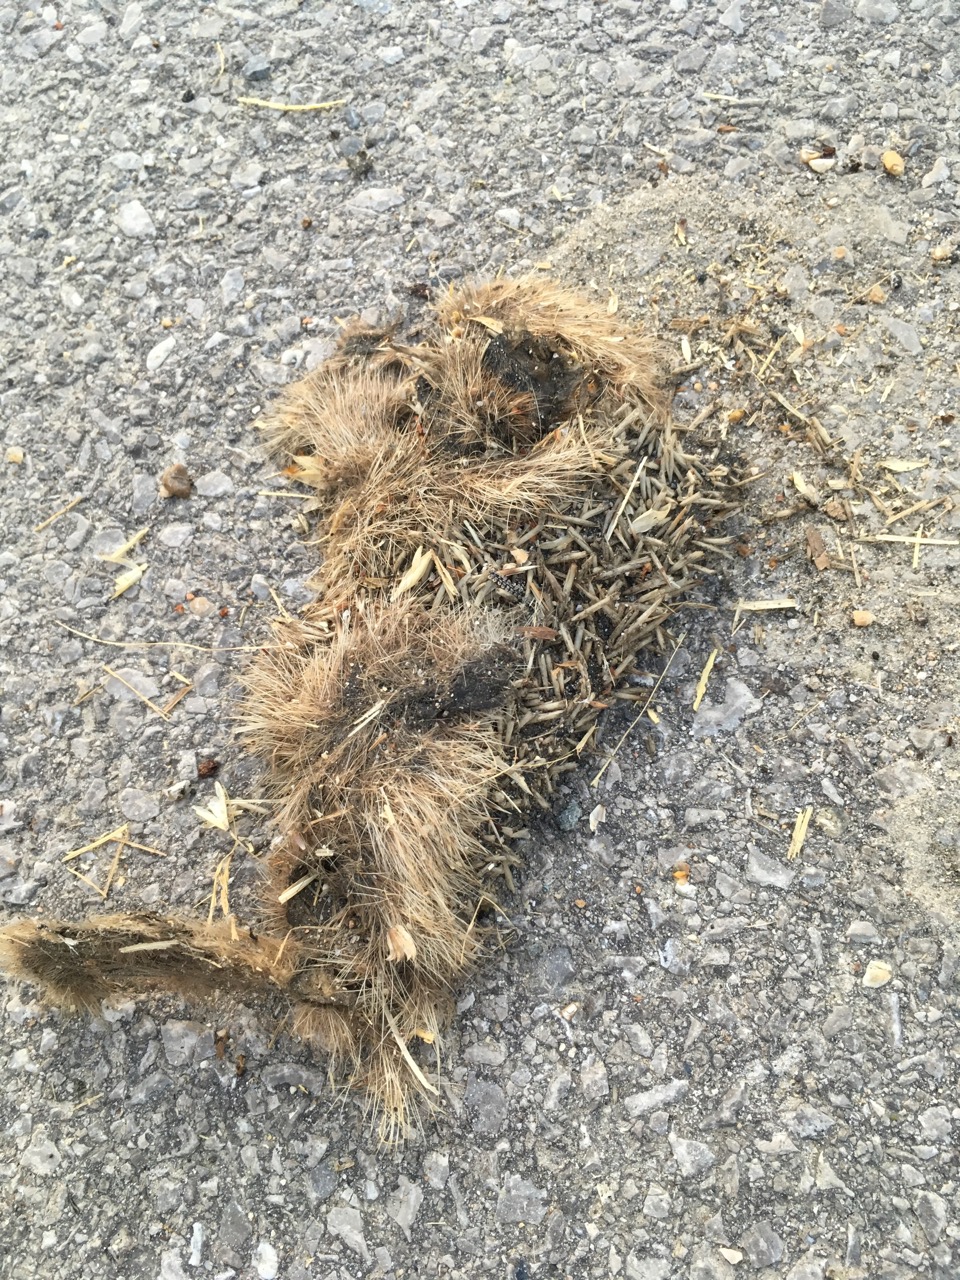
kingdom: Animalia
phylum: Chordata
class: Mammalia
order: Erinaceomorpha
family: Erinaceidae
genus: Erinaceus
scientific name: Erinaceus
